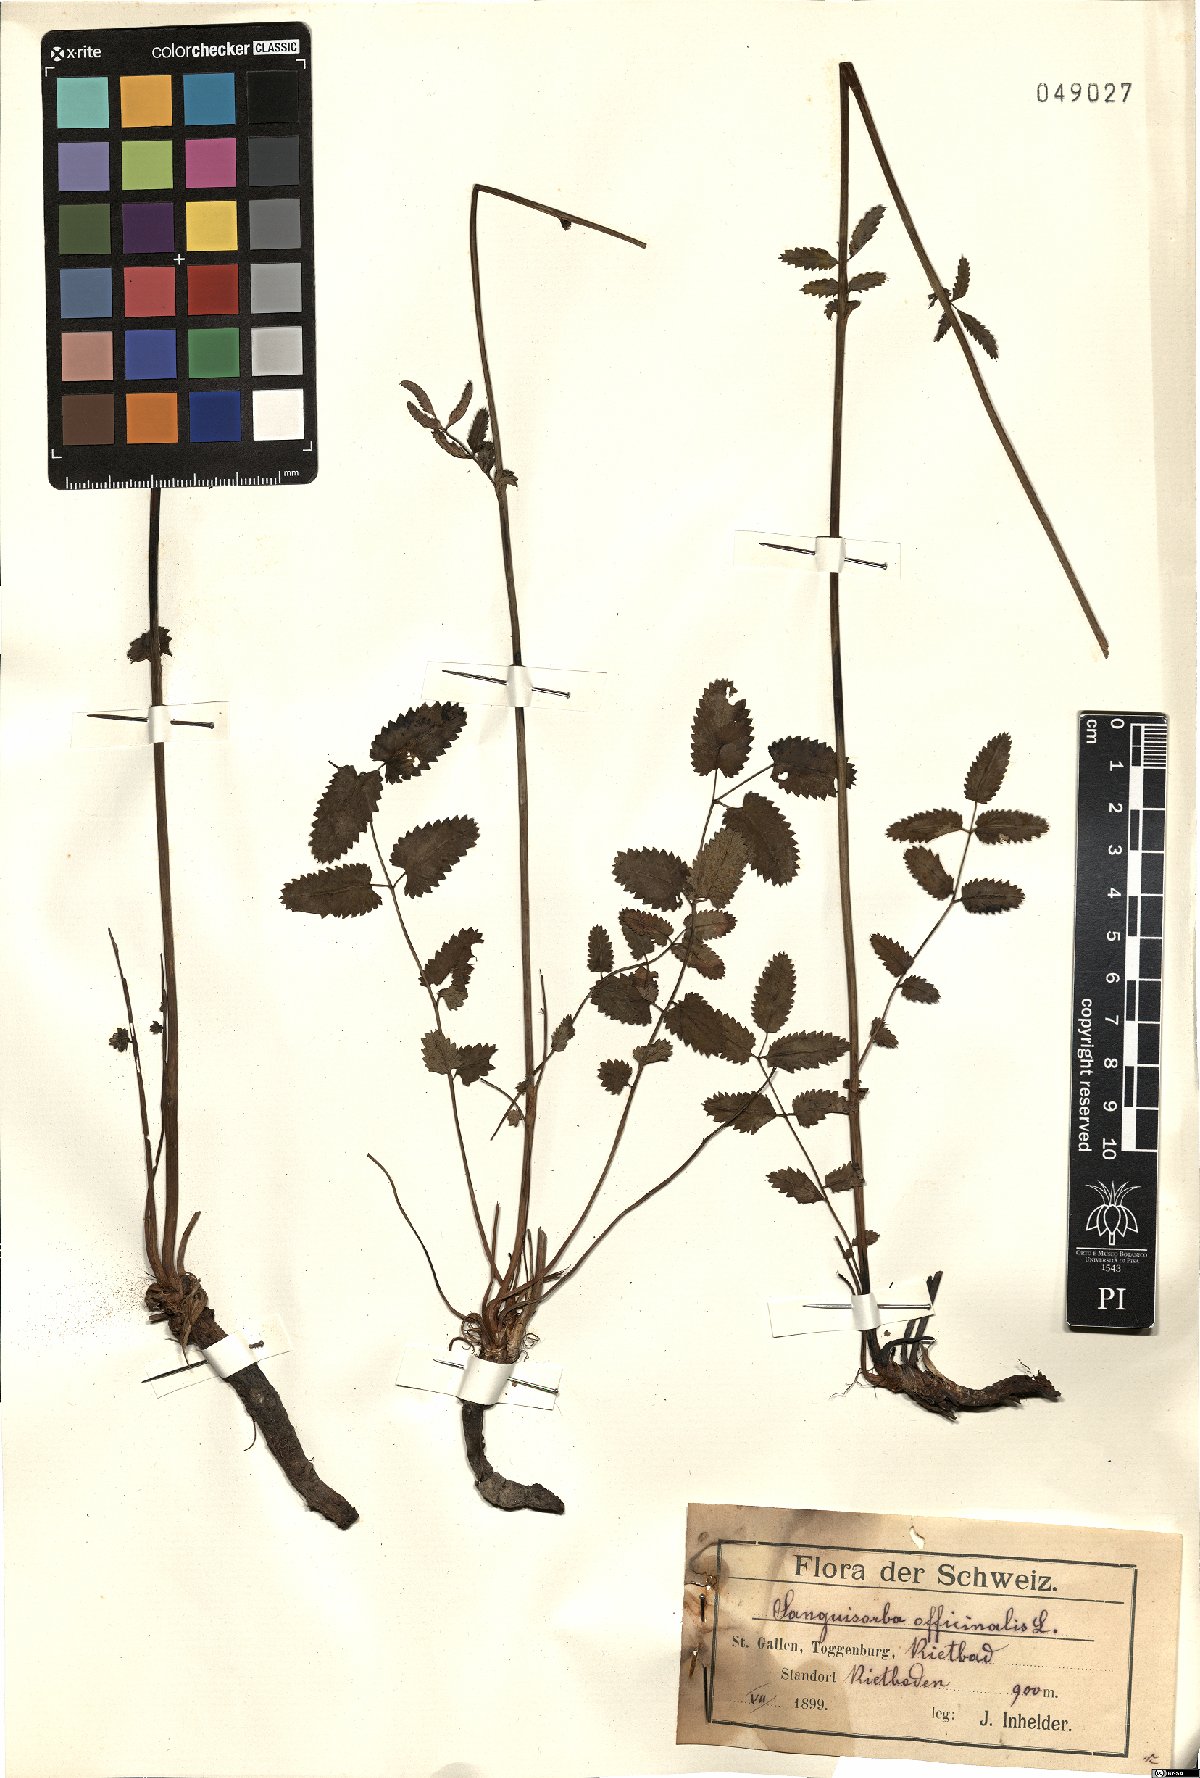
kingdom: Plantae
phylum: Tracheophyta
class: Magnoliopsida
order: Rosales
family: Rosaceae
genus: Sanguisorba
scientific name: Sanguisorba officinalis
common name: Great burnet
